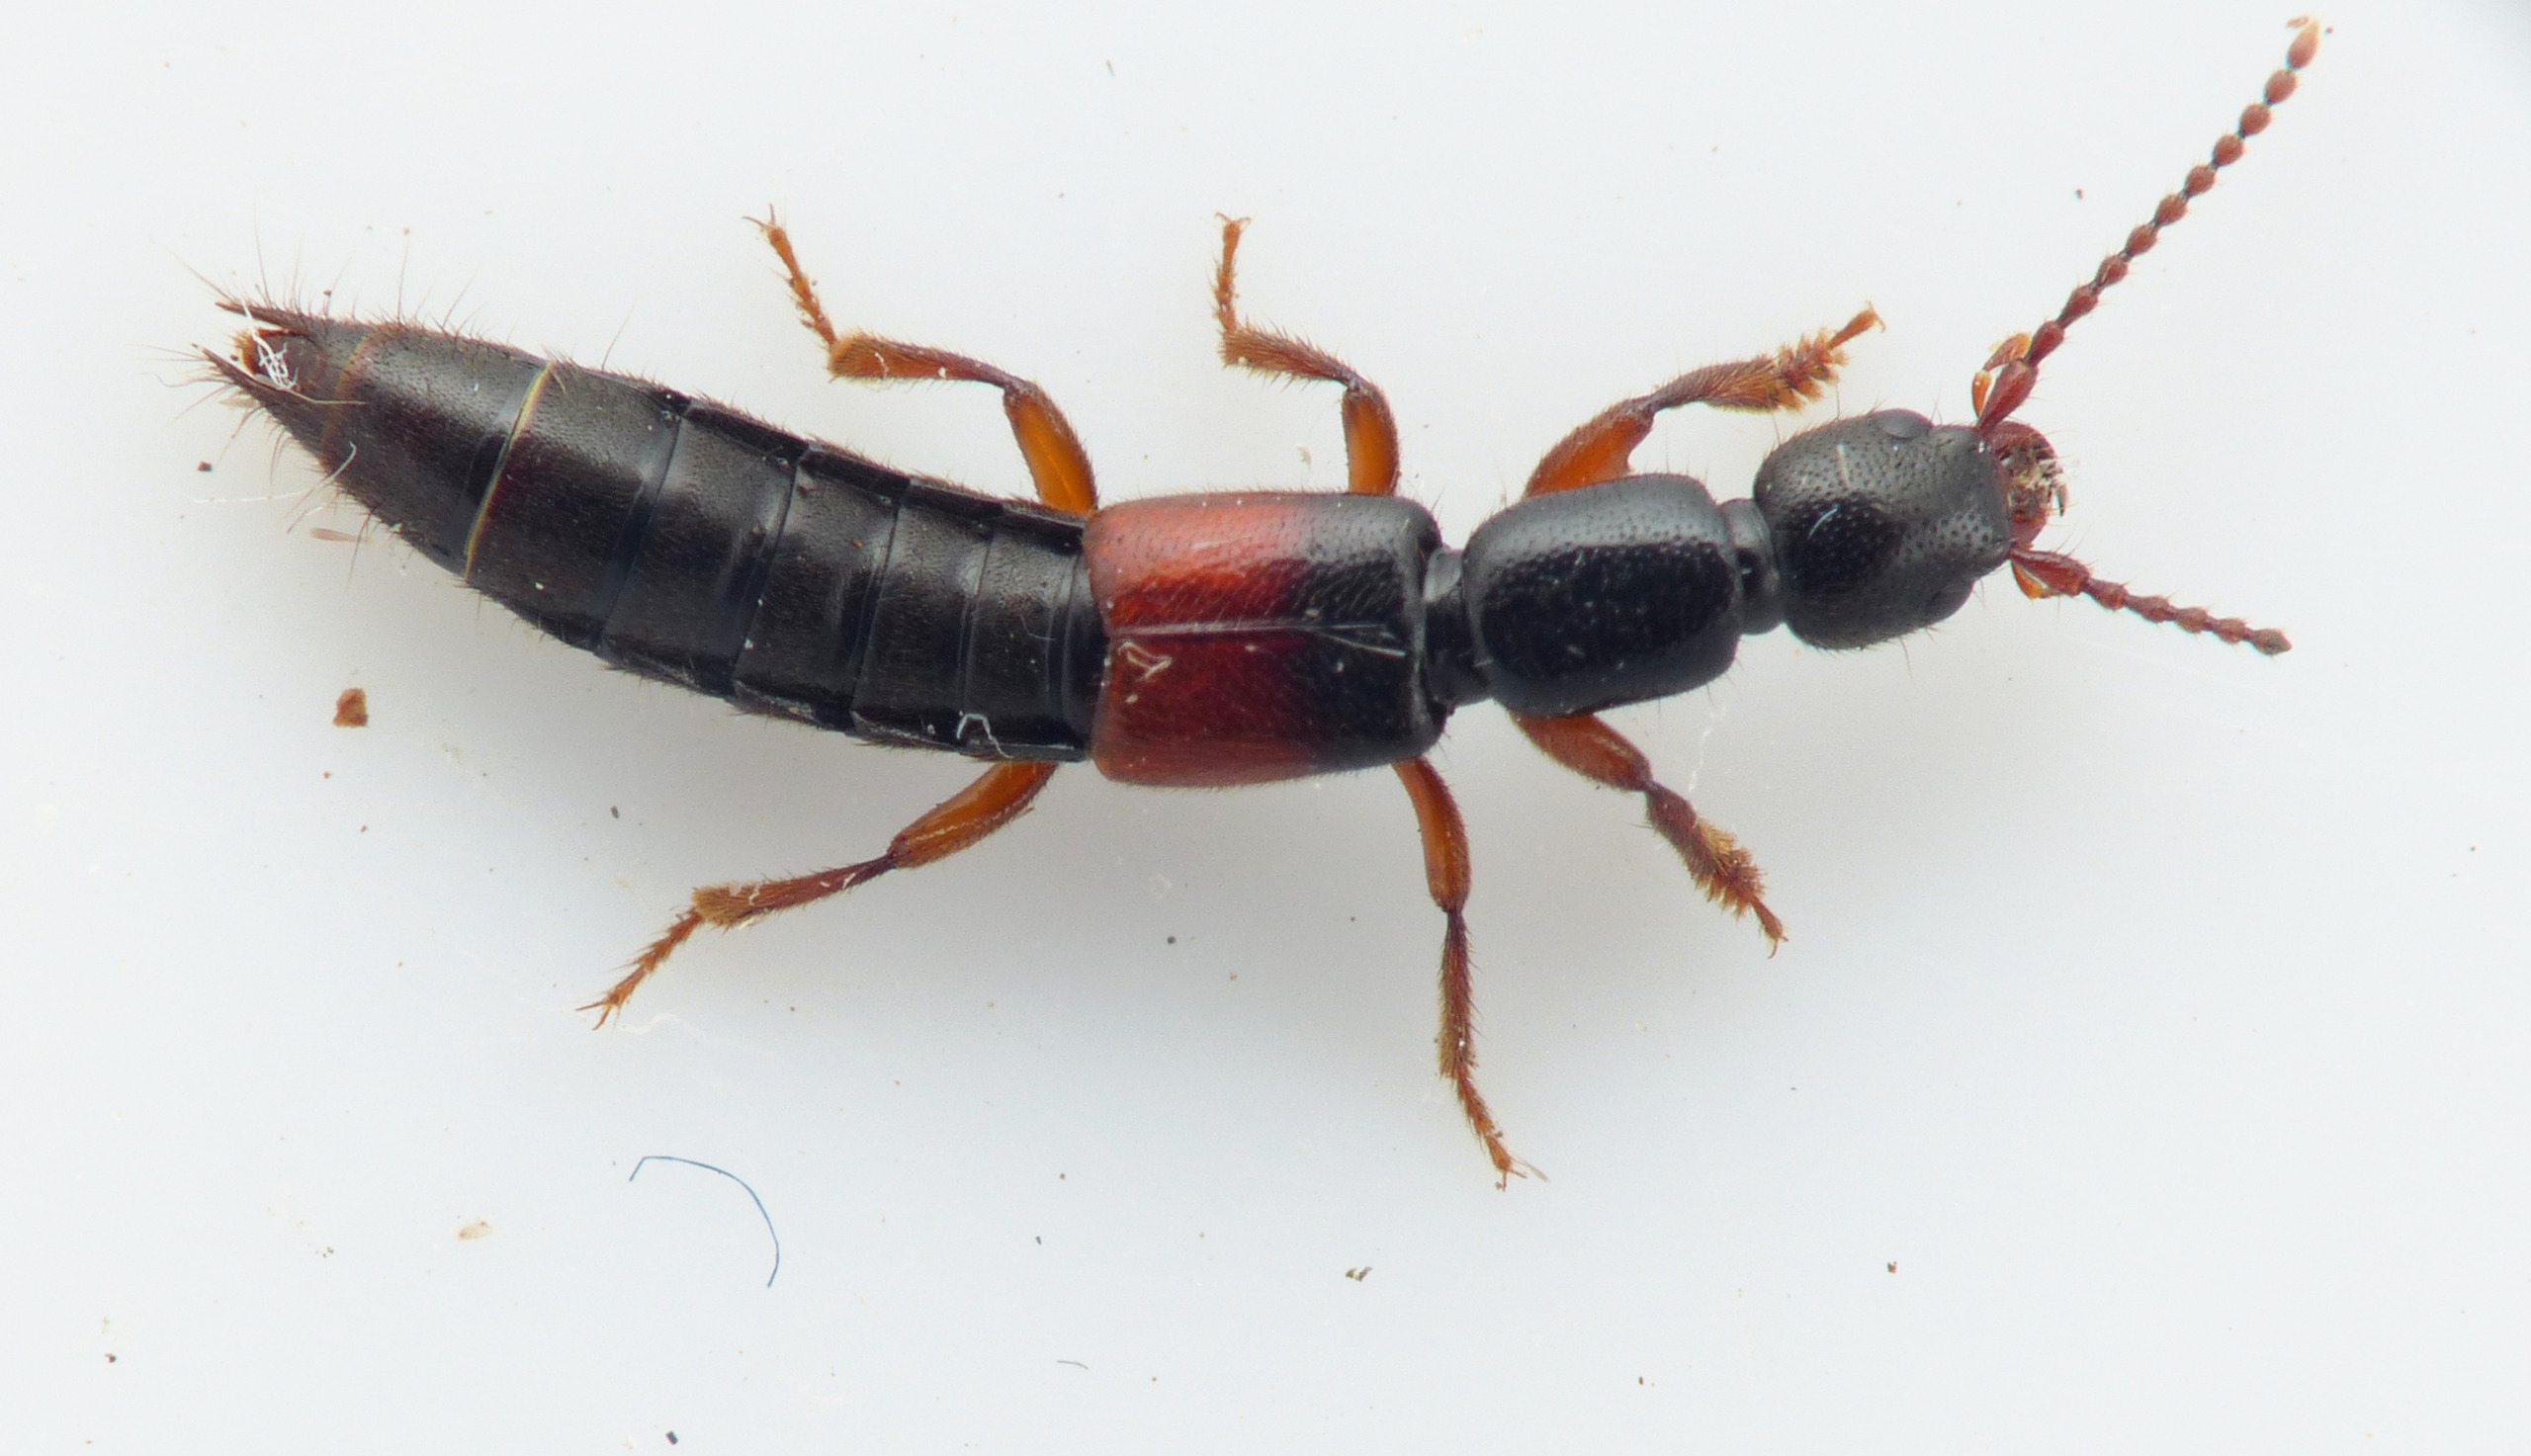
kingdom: Animalia
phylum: Arthropoda
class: Insecta
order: Coleoptera
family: Staphylinidae
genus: Lathrobium
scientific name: Lathrobium elongatum
